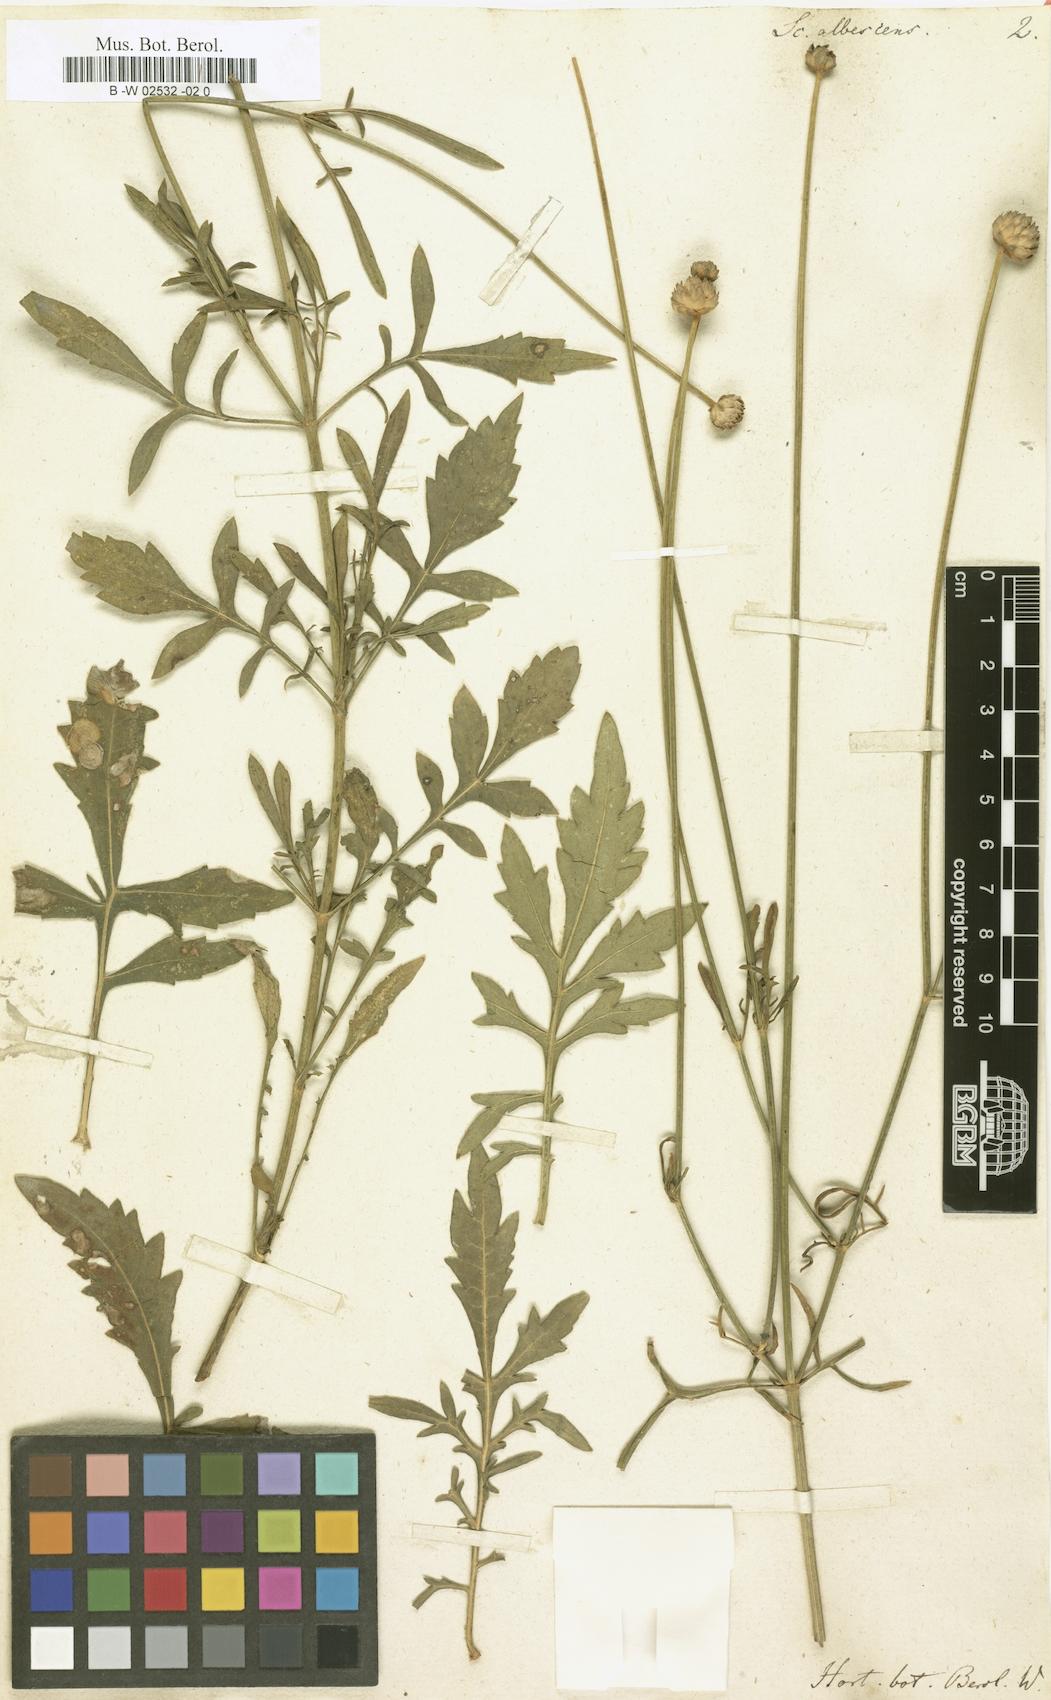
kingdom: Plantae
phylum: Tracheophyta
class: Magnoliopsida
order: Dipsacales
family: Caprifoliaceae
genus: Cephalaria
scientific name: Cephalaria leucantha
